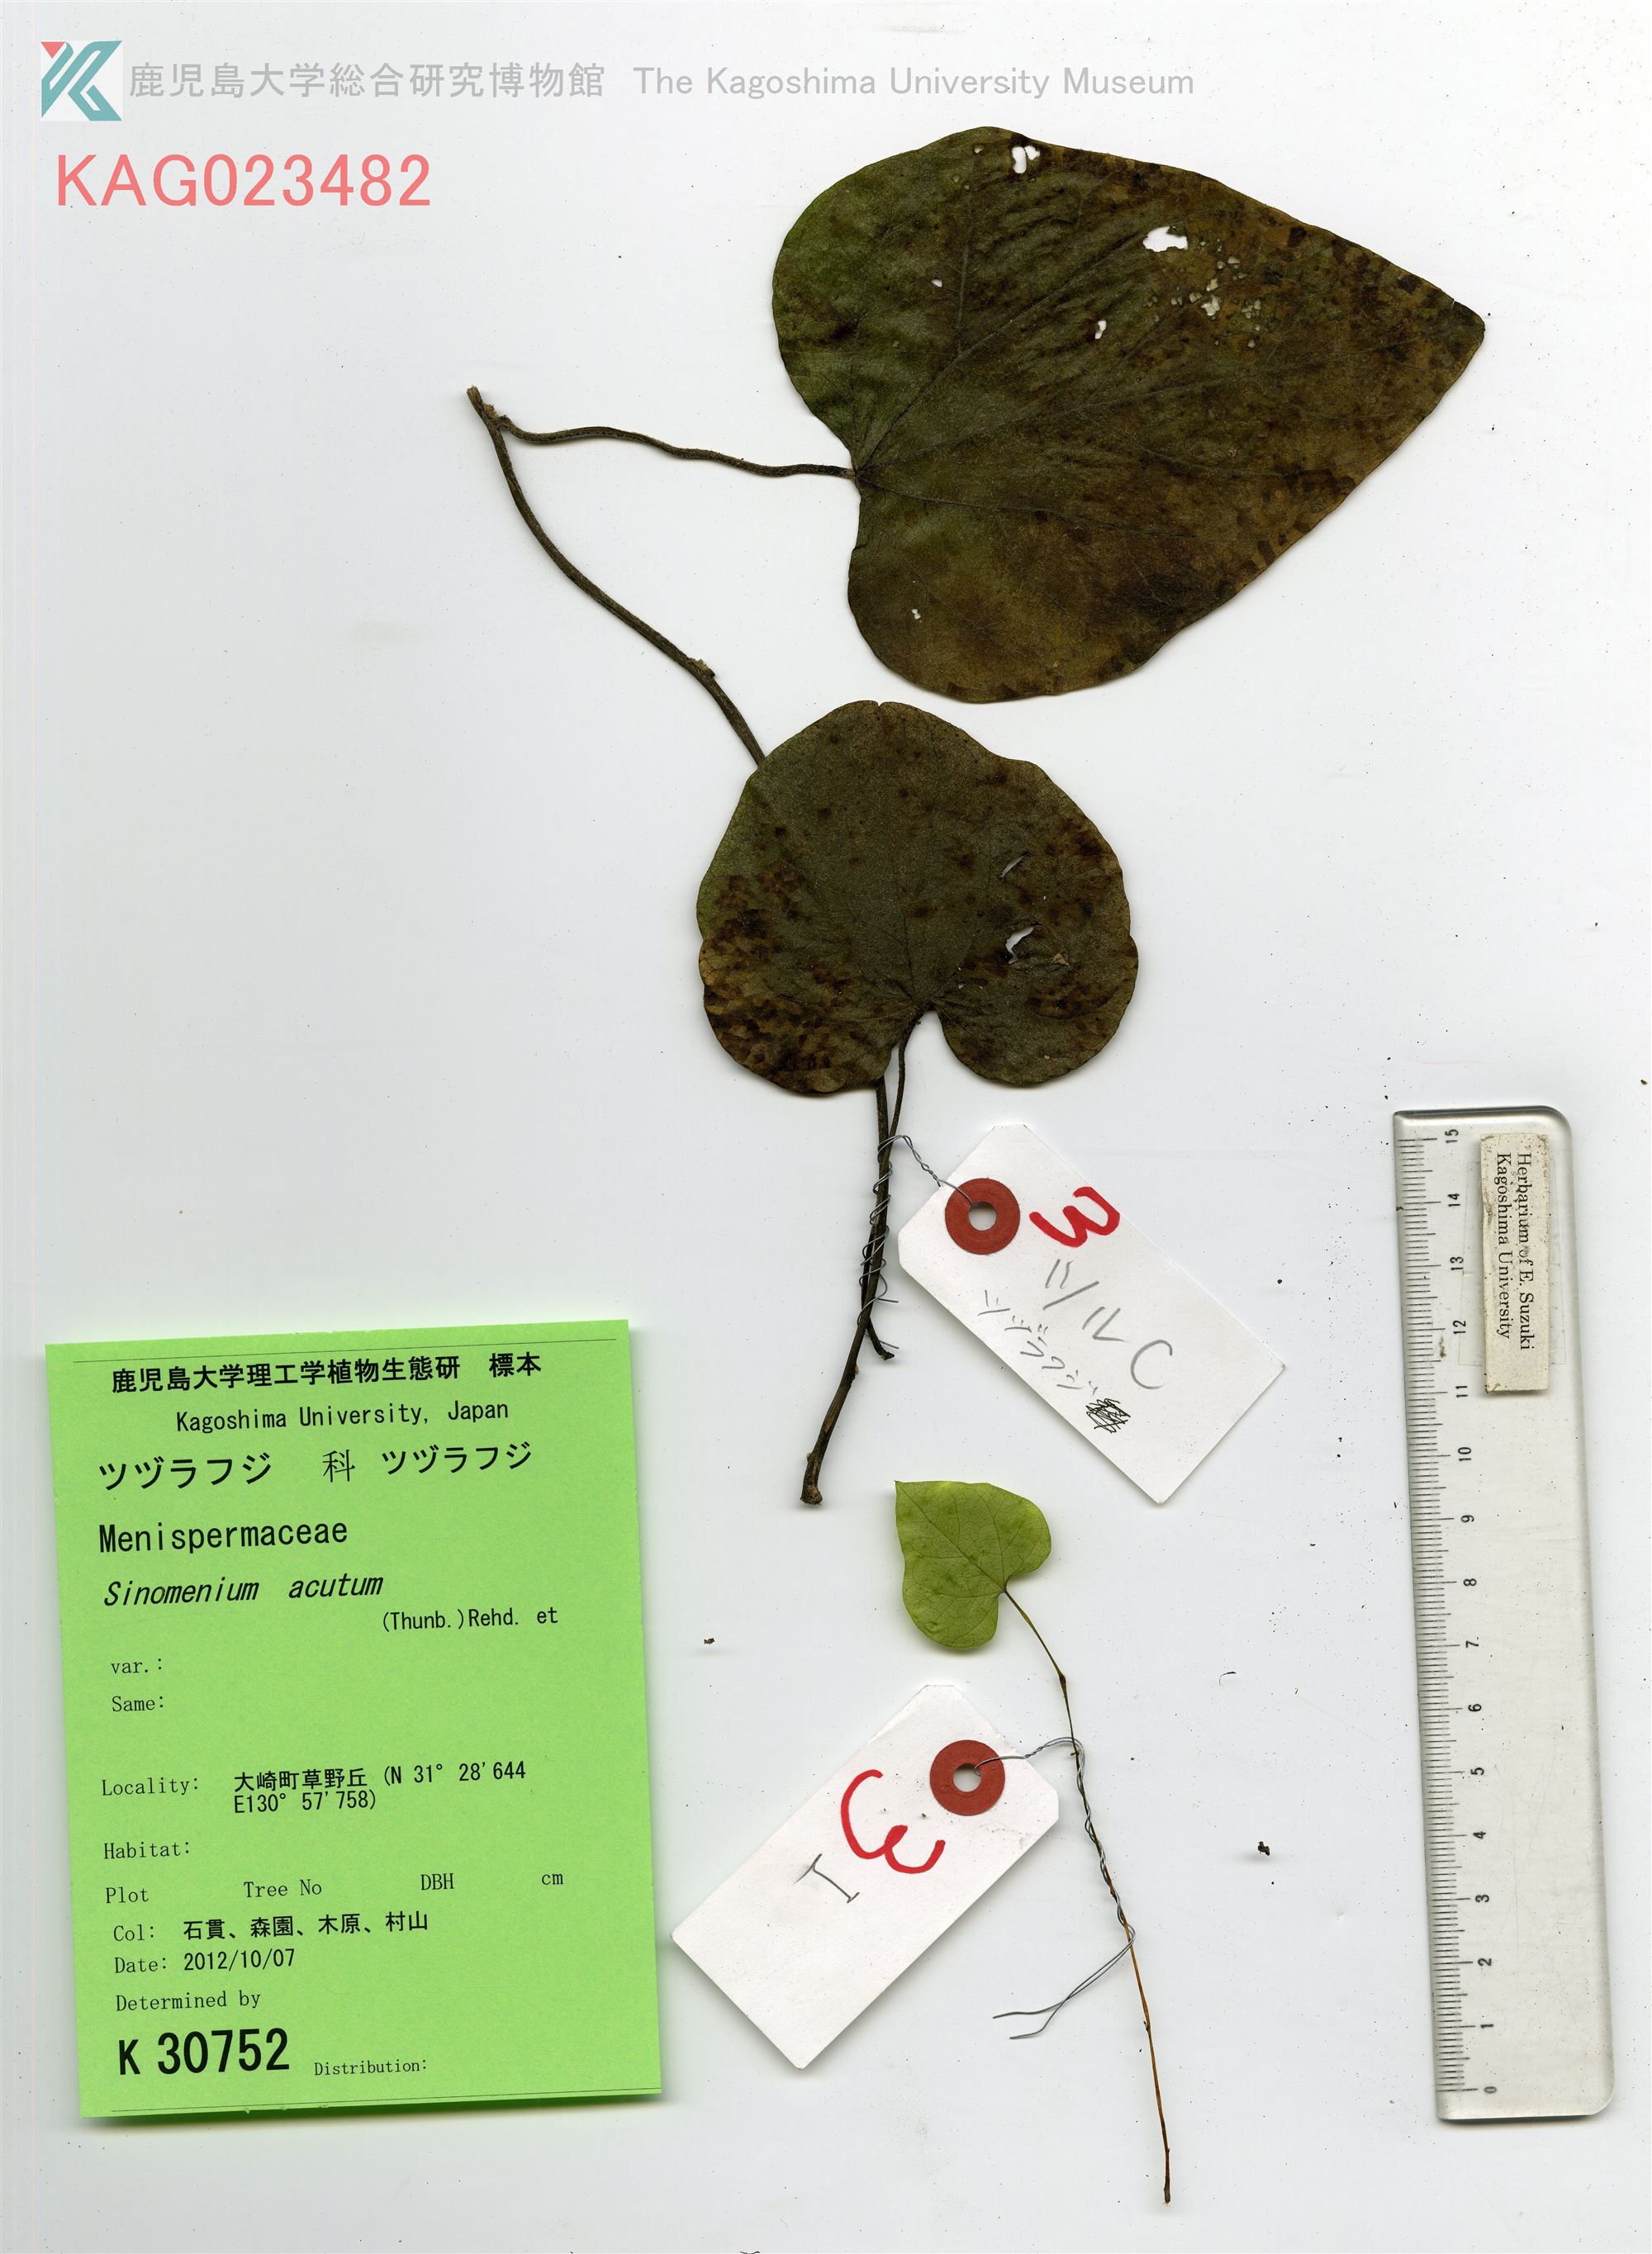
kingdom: Plantae
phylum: Tracheophyta
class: Magnoliopsida
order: Piperales
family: Aristolochiaceae
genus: Isotrema
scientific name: Isotrema kaempferi
